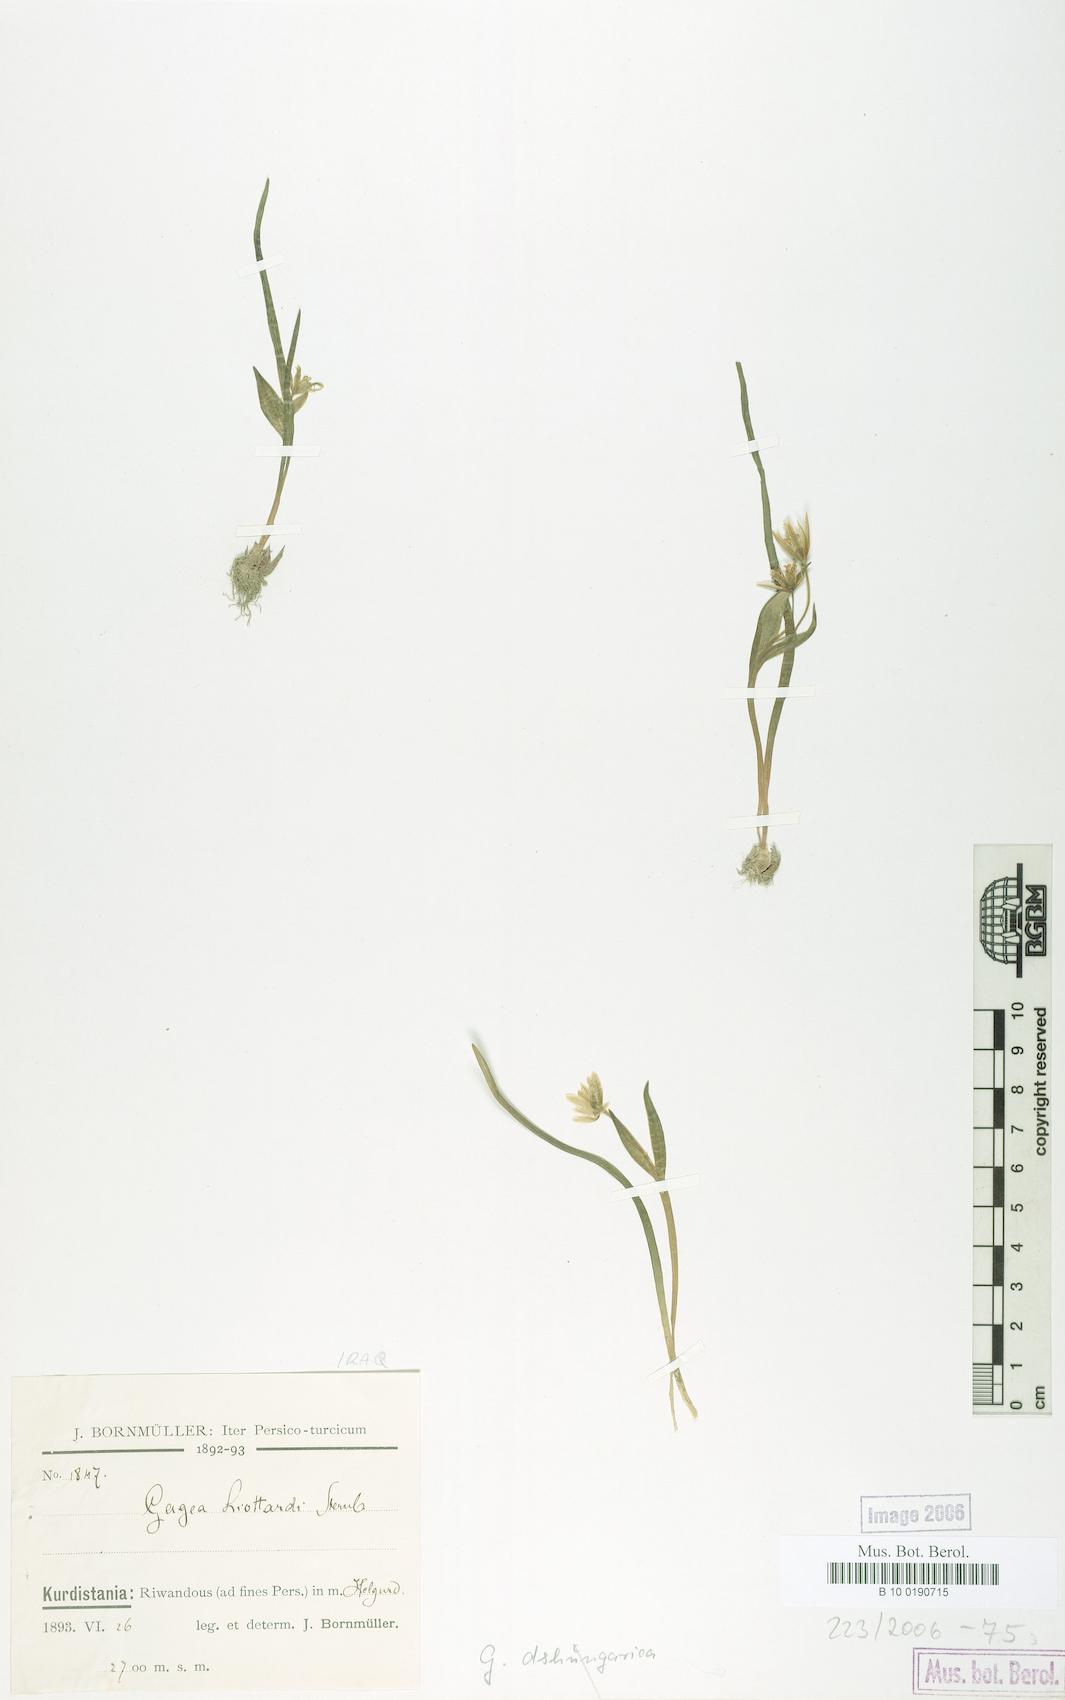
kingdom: Plantae
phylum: Tracheophyta
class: Liliopsida
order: Liliales
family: Liliaceae
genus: Gagea
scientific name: Gagea dschungarica
